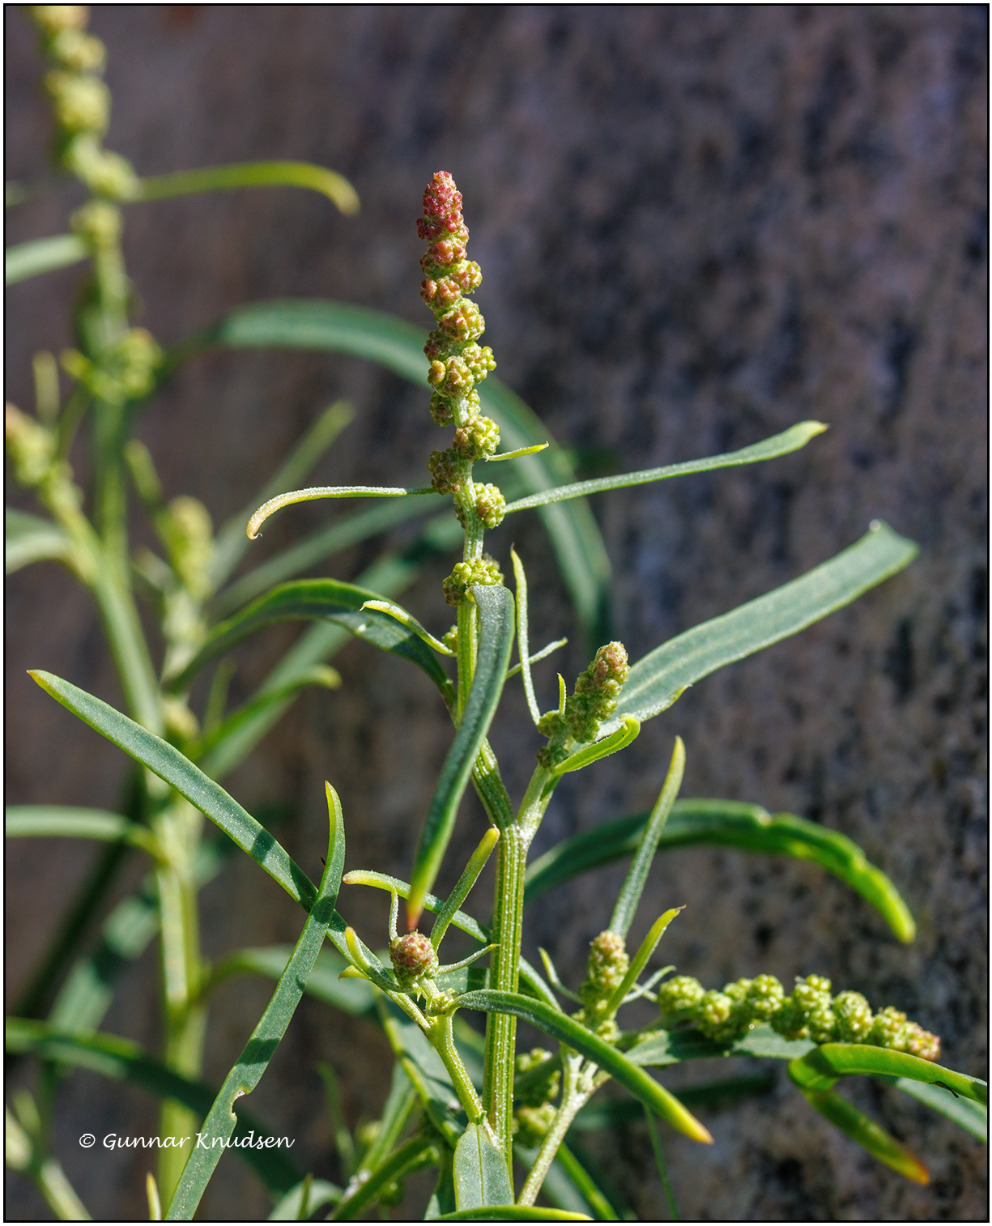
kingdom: Plantae
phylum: Tracheophyta
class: Magnoliopsida
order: Caryophyllales
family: Amaranthaceae
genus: Atriplex
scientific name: Atriplex littoralis
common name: Strand-mælde
